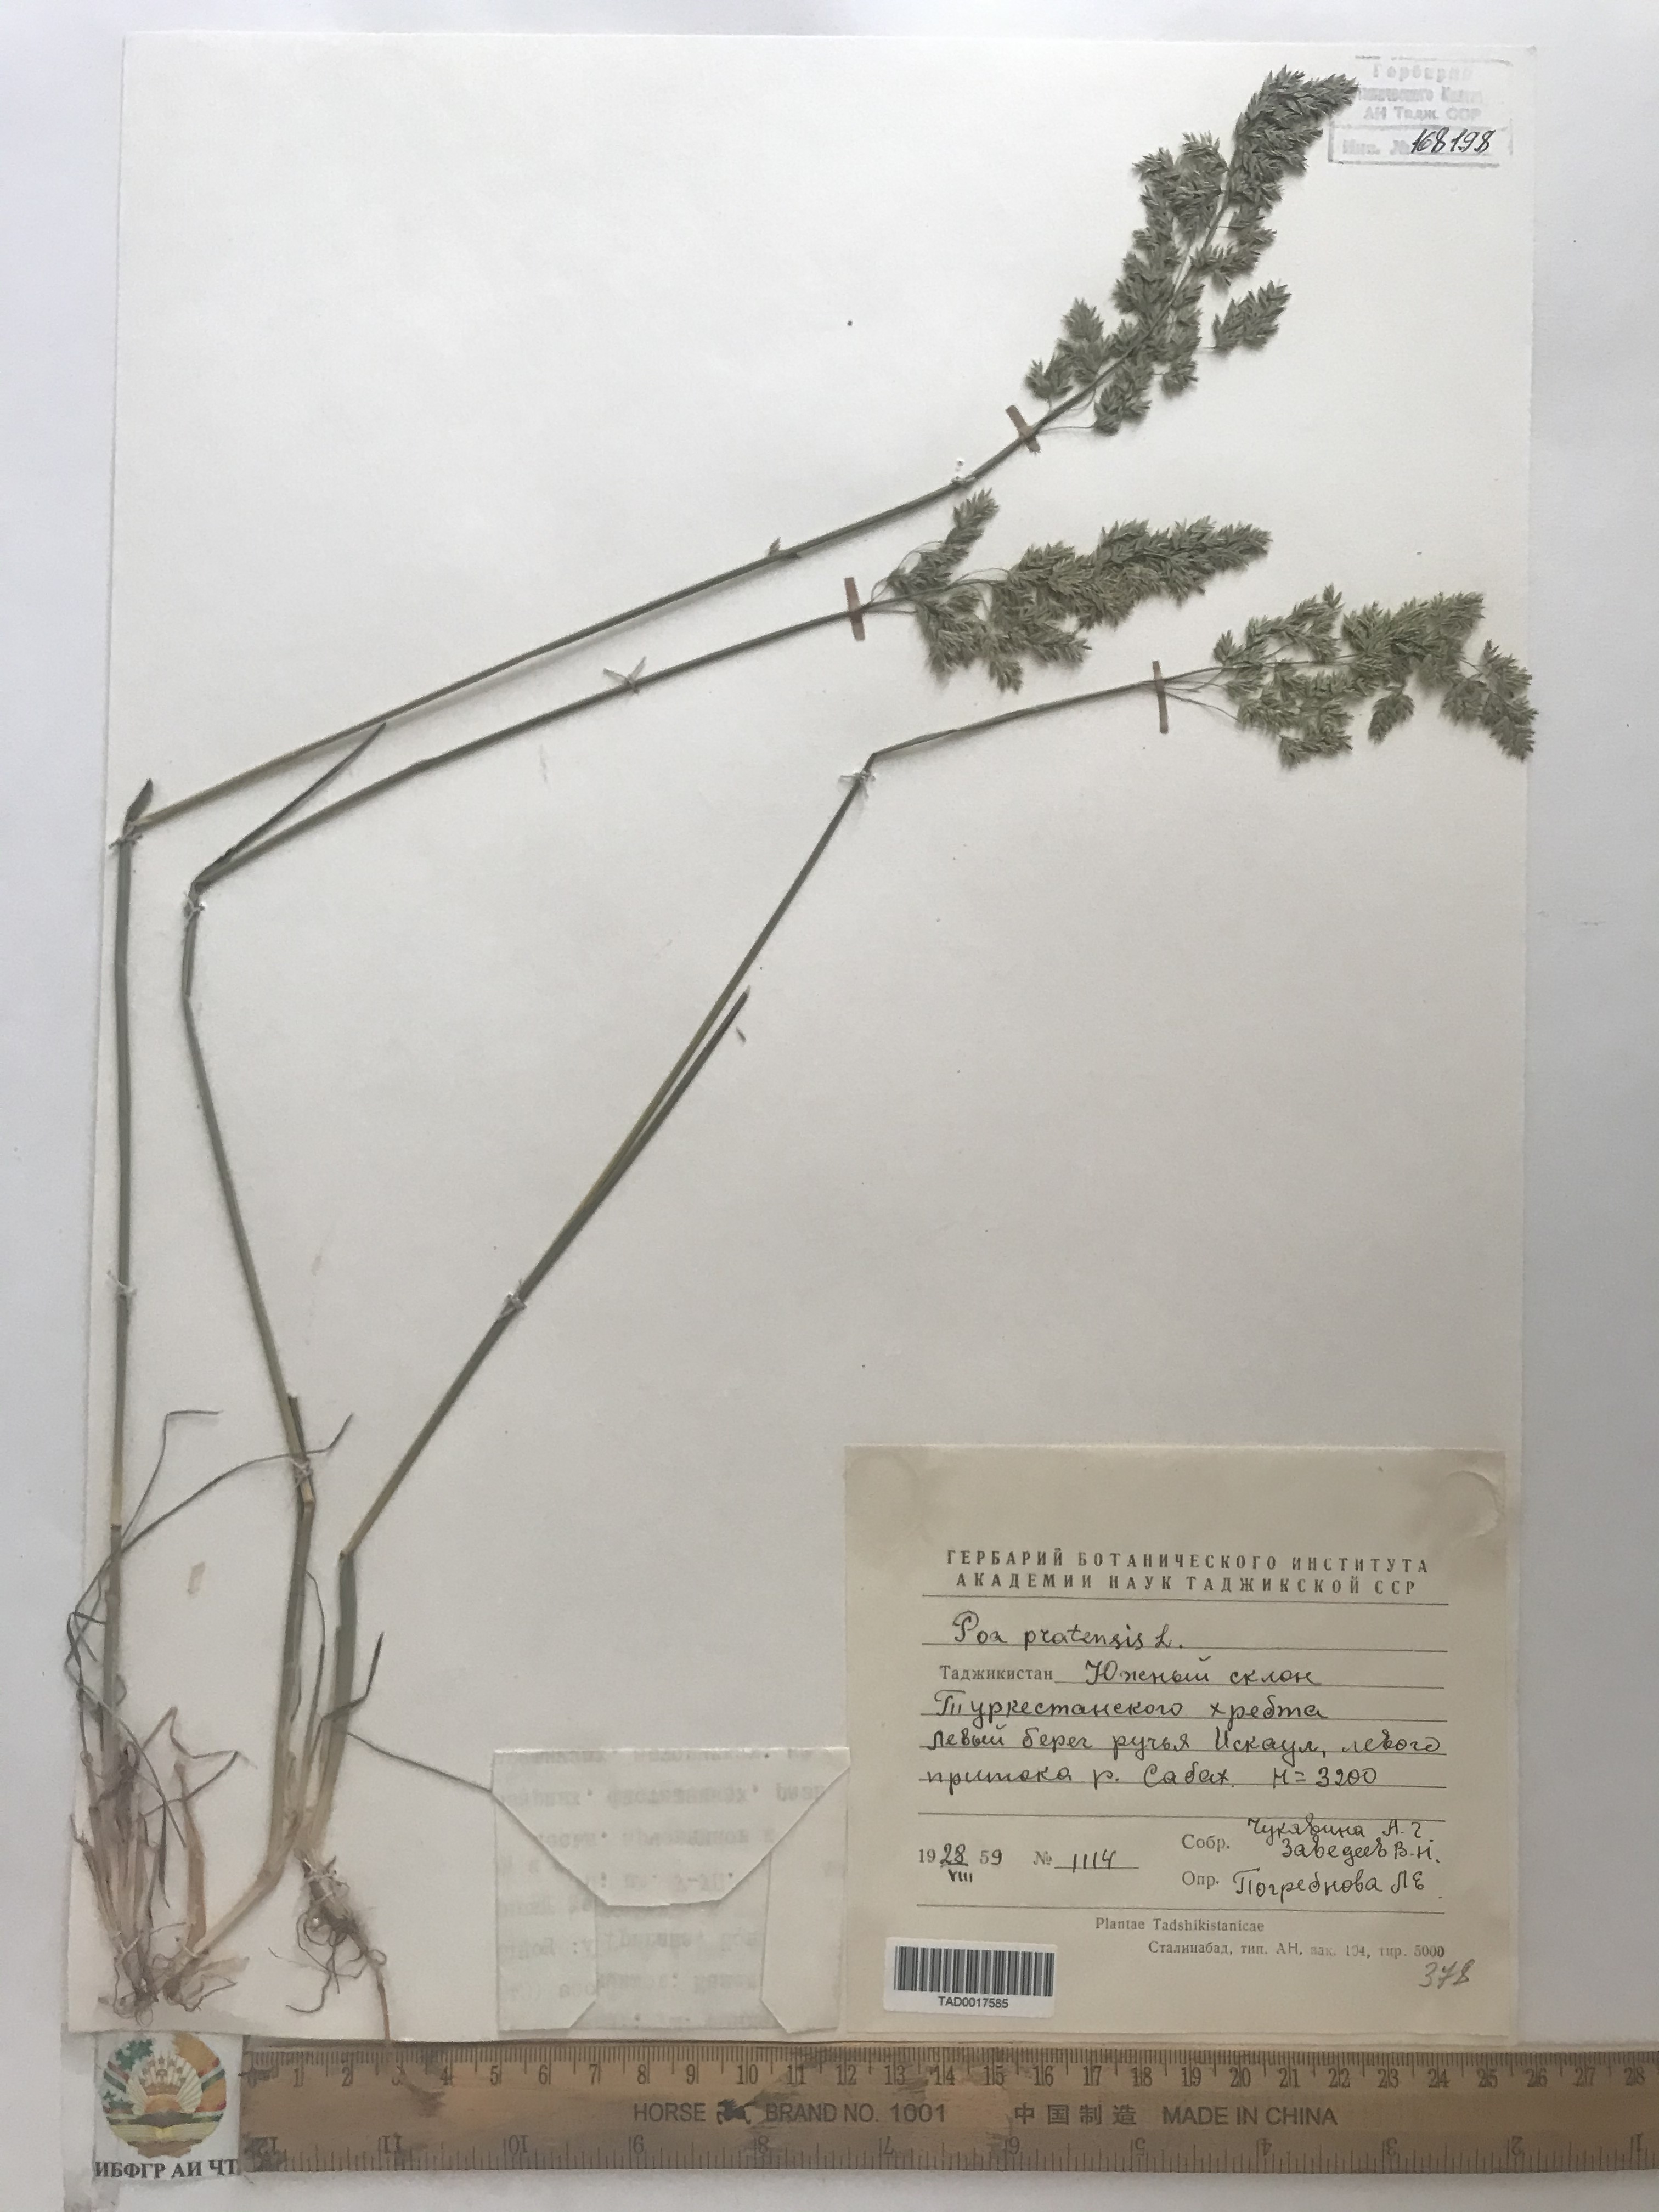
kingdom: Plantae
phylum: Tracheophyta
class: Liliopsida
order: Poales
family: Poaceae
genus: Poa
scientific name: Poa pratensis
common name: Kentucky bluegrass
